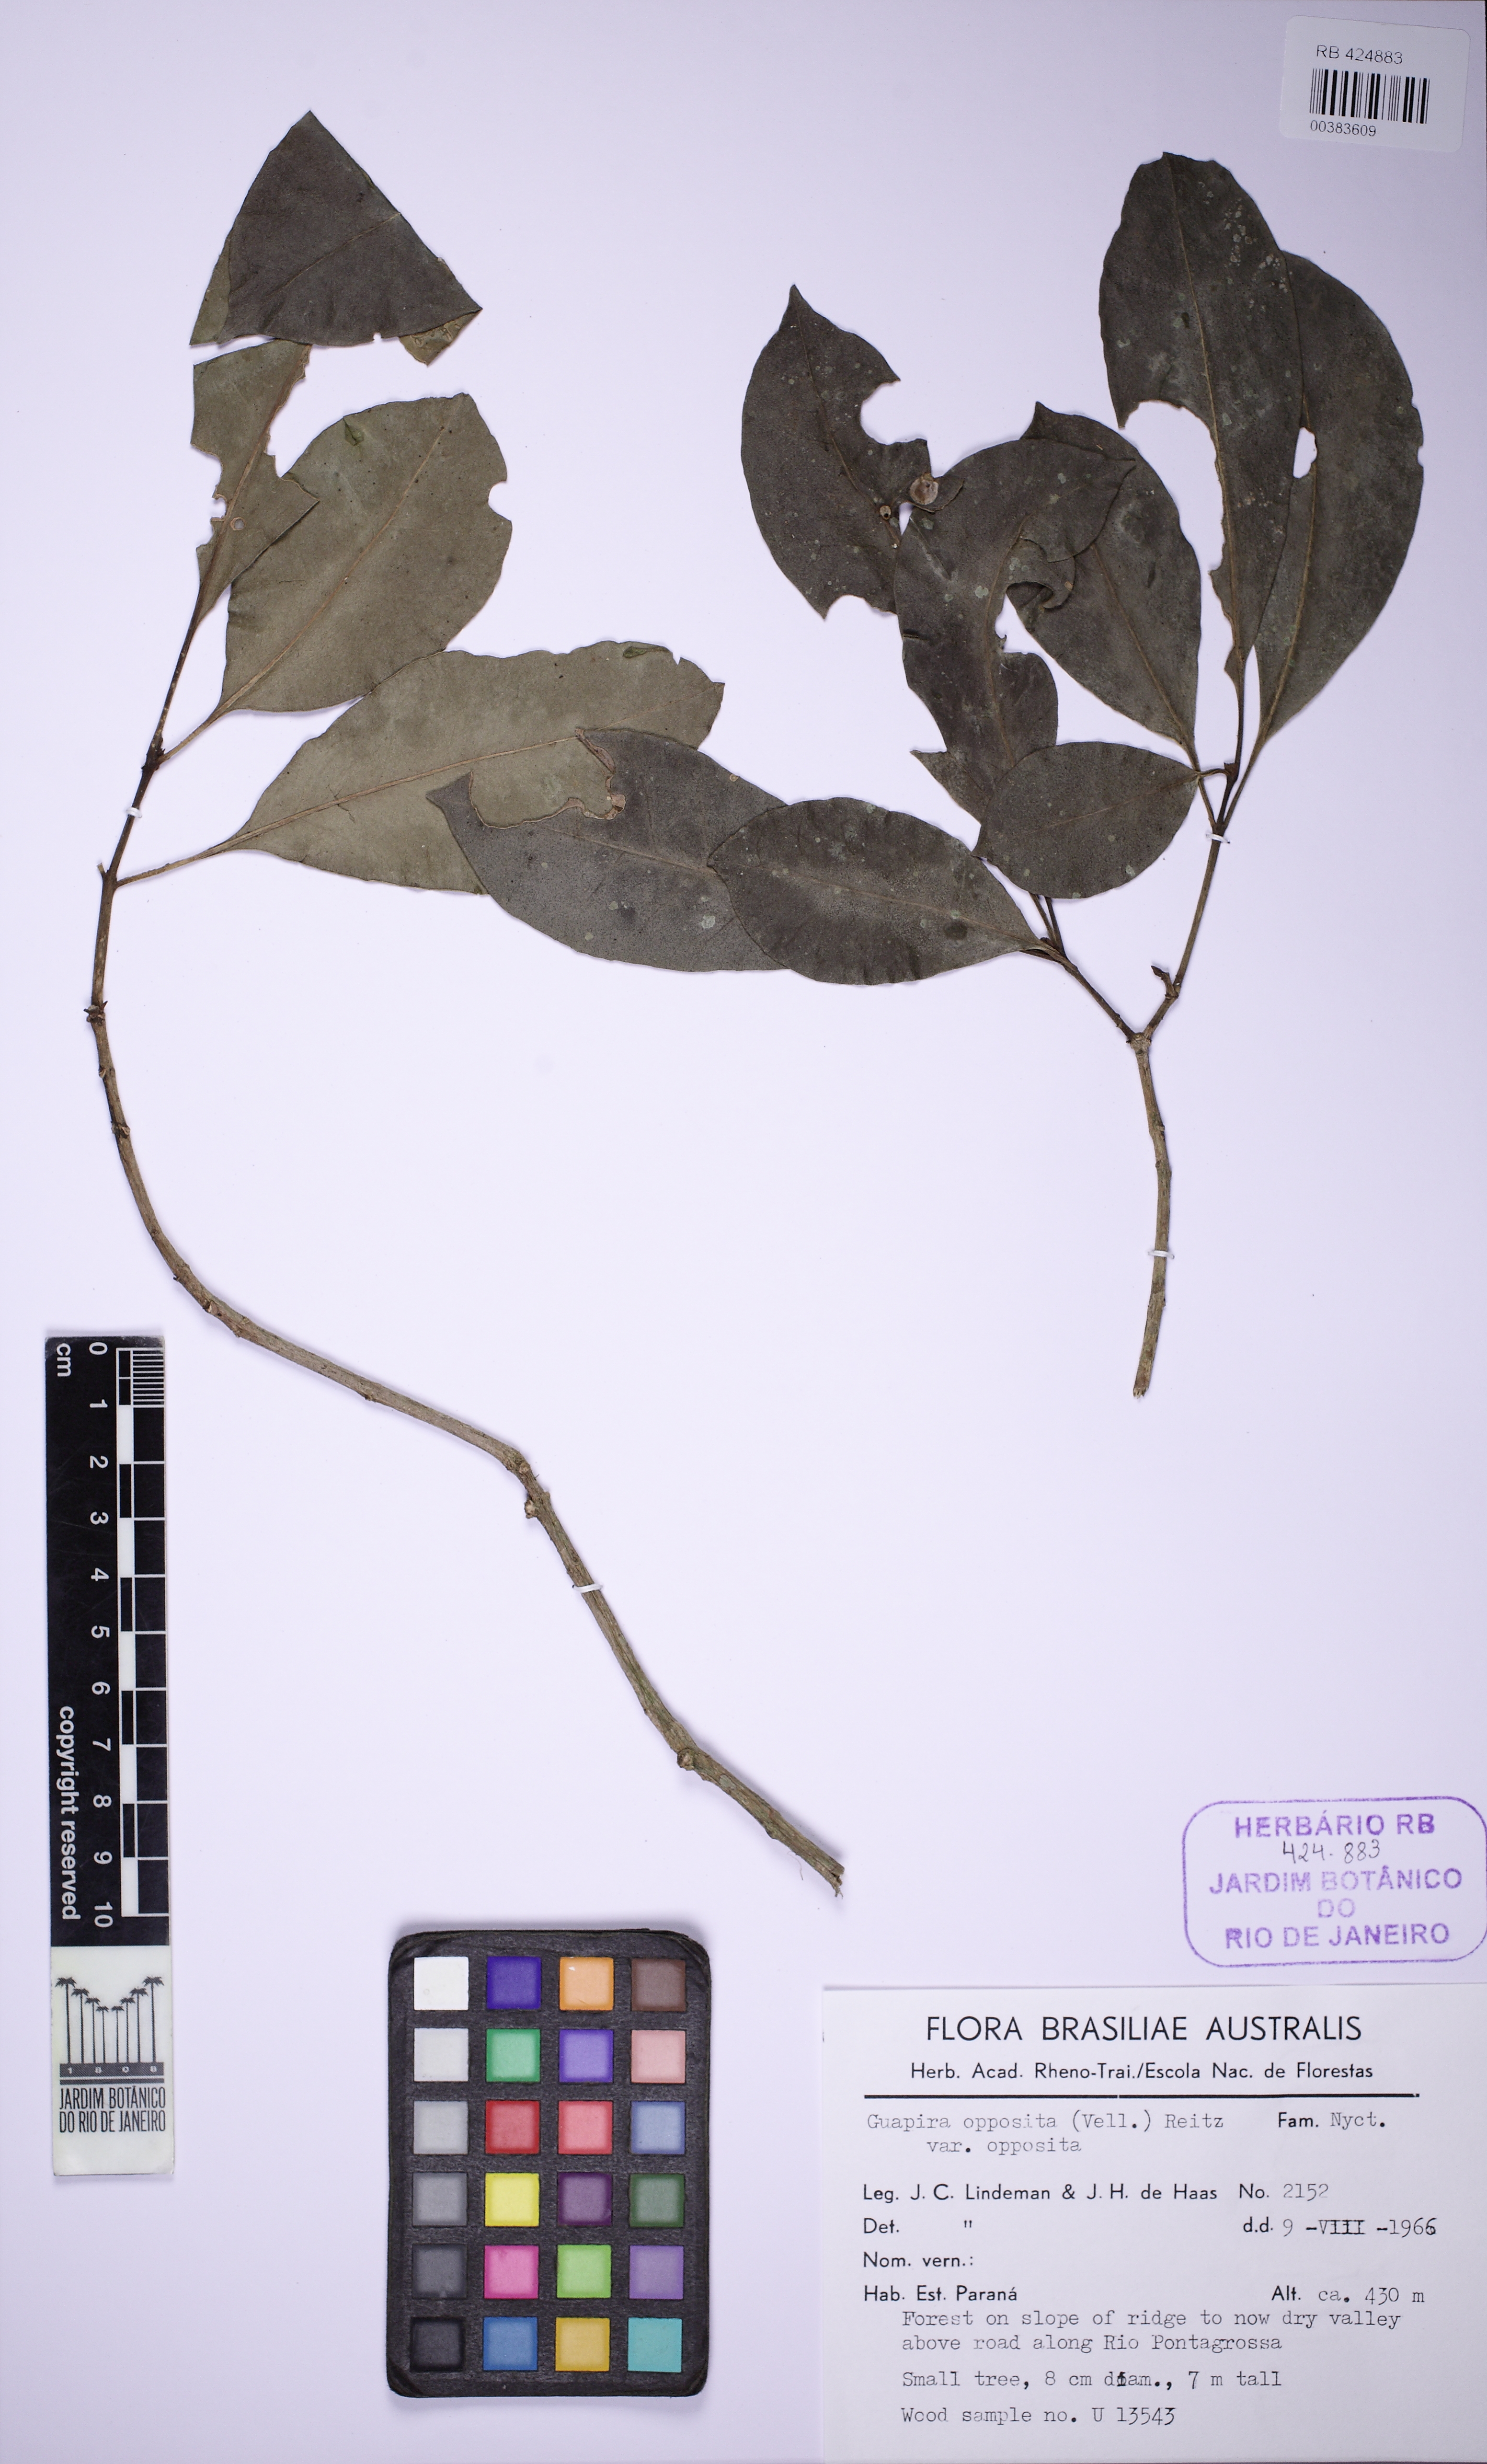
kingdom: Plantae
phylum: Tracheophyta
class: Magnoliopsida
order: Caryophyllales
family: Nyctaginaceae
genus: Guapira
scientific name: Guapira opposita
